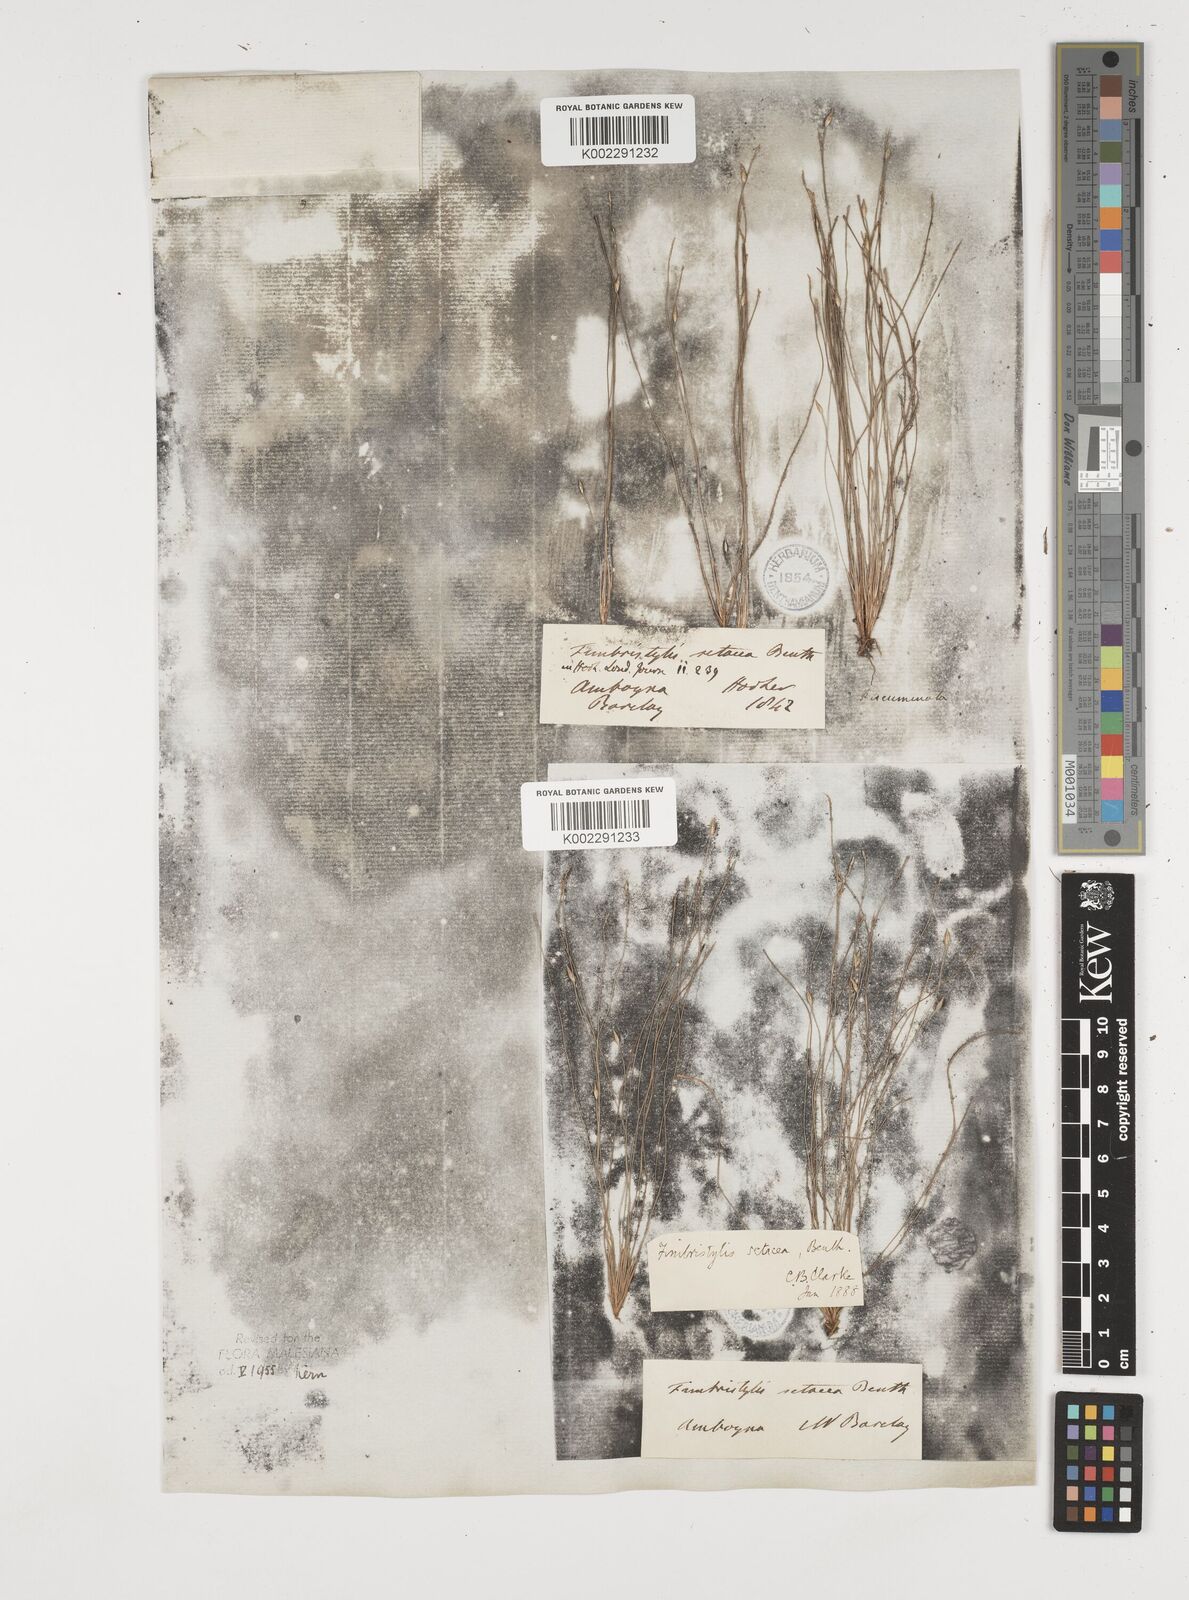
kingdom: Plantae
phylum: Tracheophyta
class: Liliopsida
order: Poales
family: Cyperaceae
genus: Fimbristylis
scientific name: Fimbristylis acicularis
